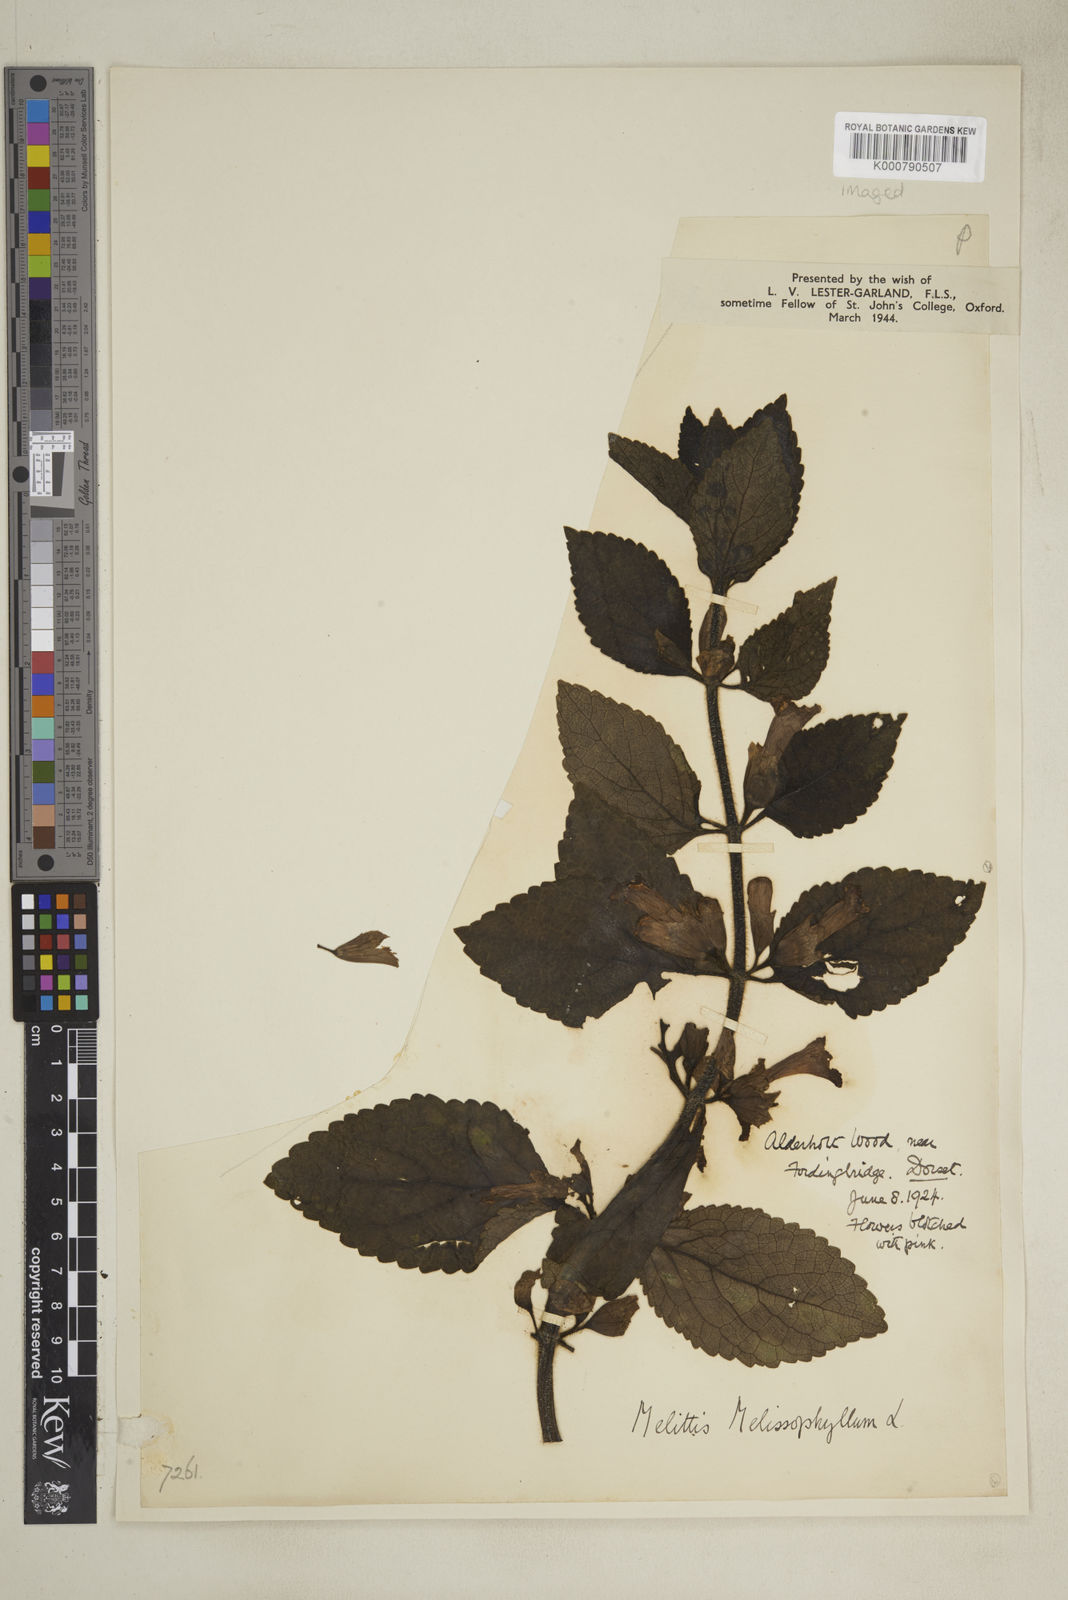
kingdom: Plantae
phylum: Tracheophyta
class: Magnoliopsida
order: Lamiales
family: Lamiaceae
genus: Melittis
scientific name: Melittis melissophyllum
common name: Bastard balm
